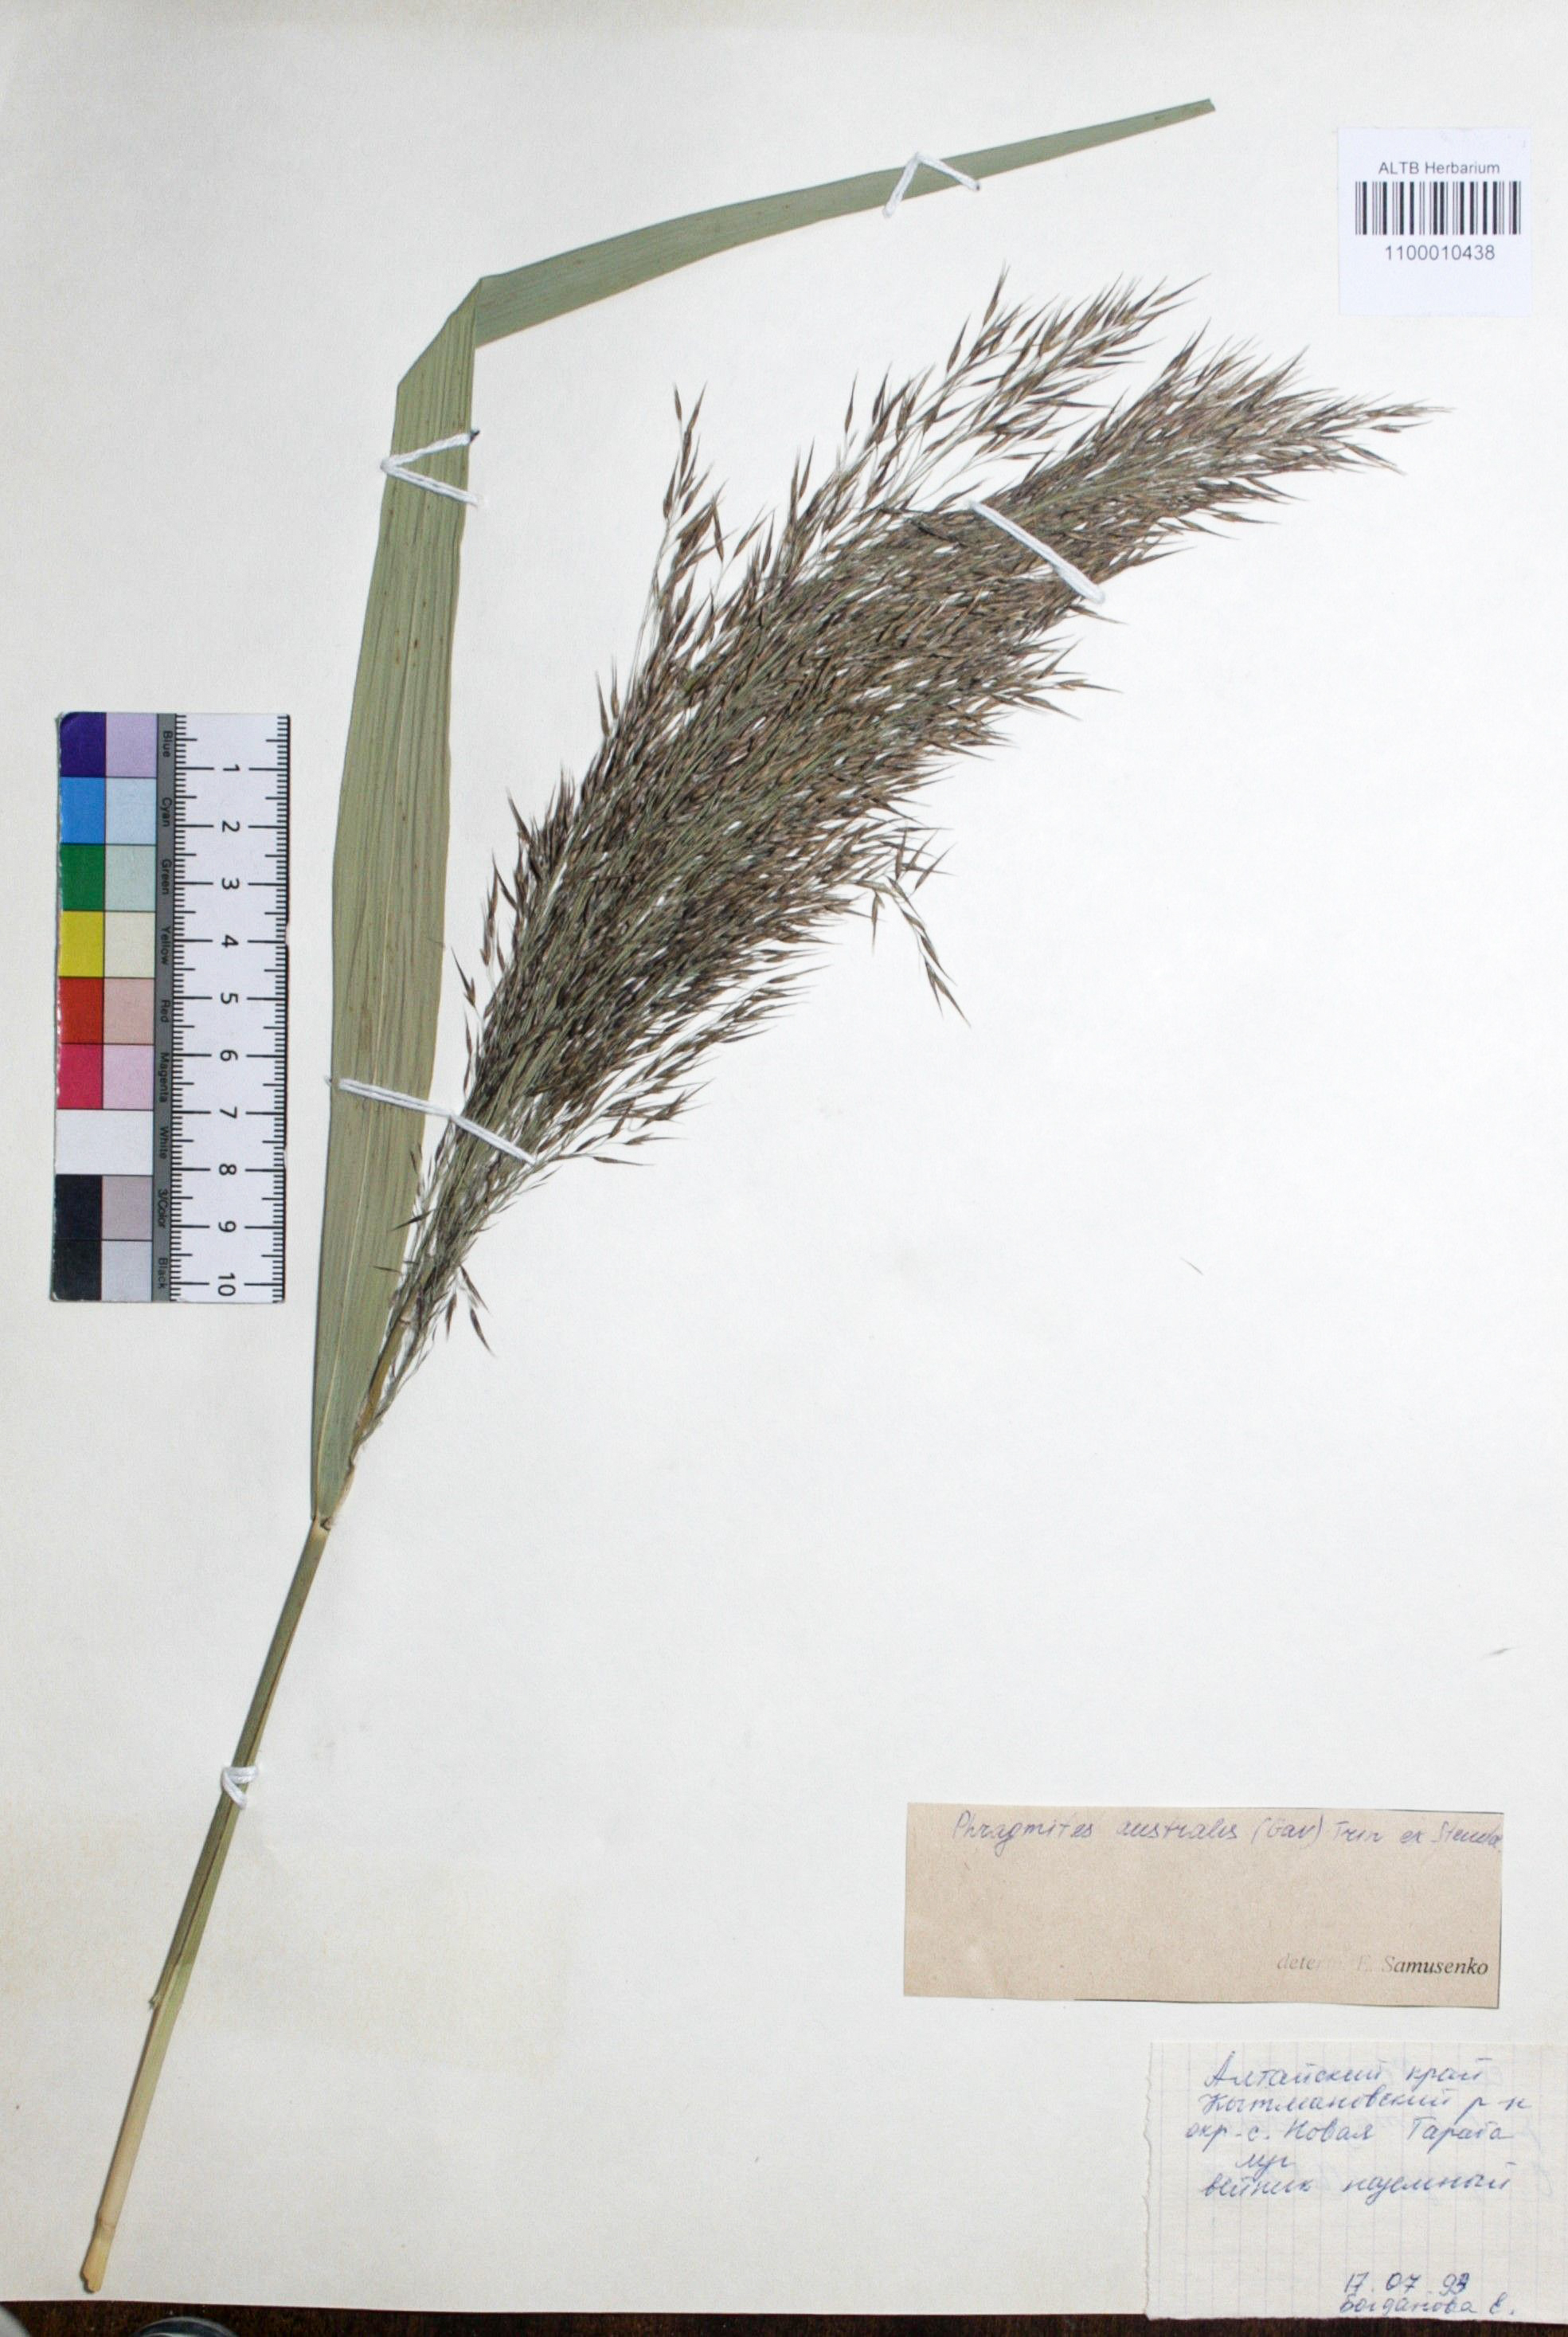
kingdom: Plantae
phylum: Tracheophyta
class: Liliopsida
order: Poales
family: Poaceae
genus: Phragmites
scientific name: Phragmites australis
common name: Common reed
